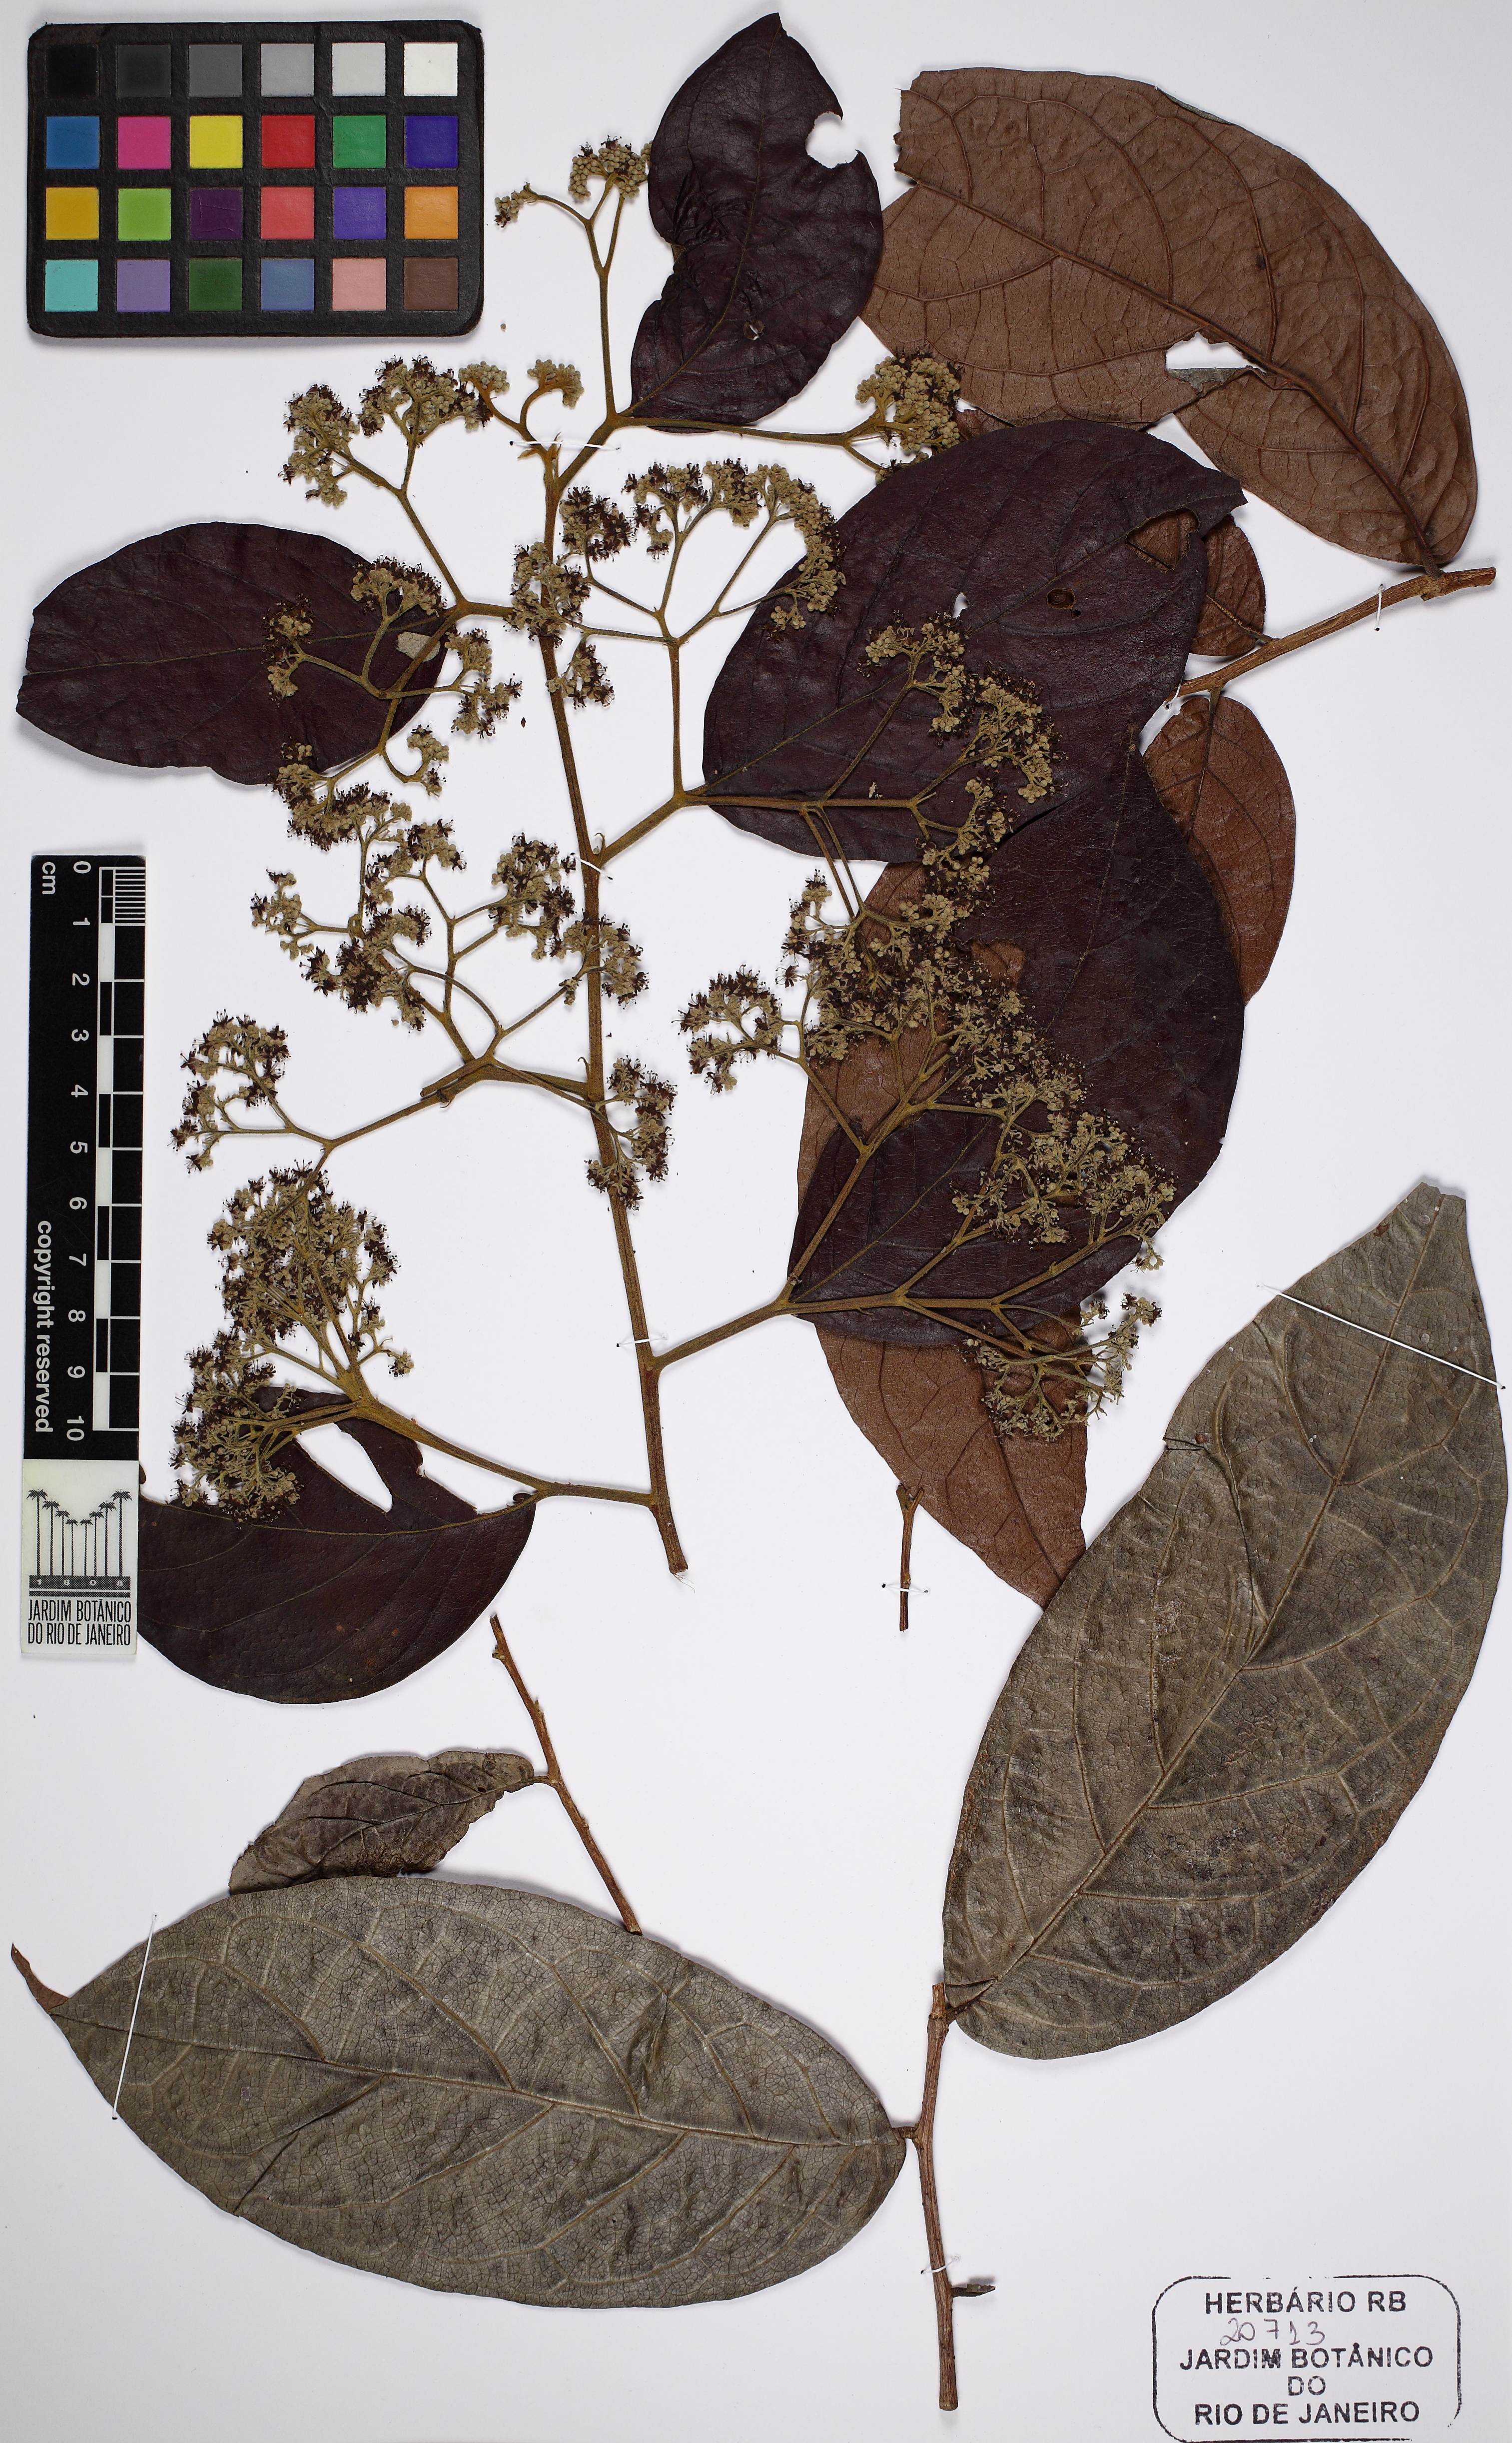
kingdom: Plantae
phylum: Tracheophyta
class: Magnoliopsida
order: Malpighiales
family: Dichapetalaceae
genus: Dichapetalum
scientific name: Dichapetalum pedunculatum
